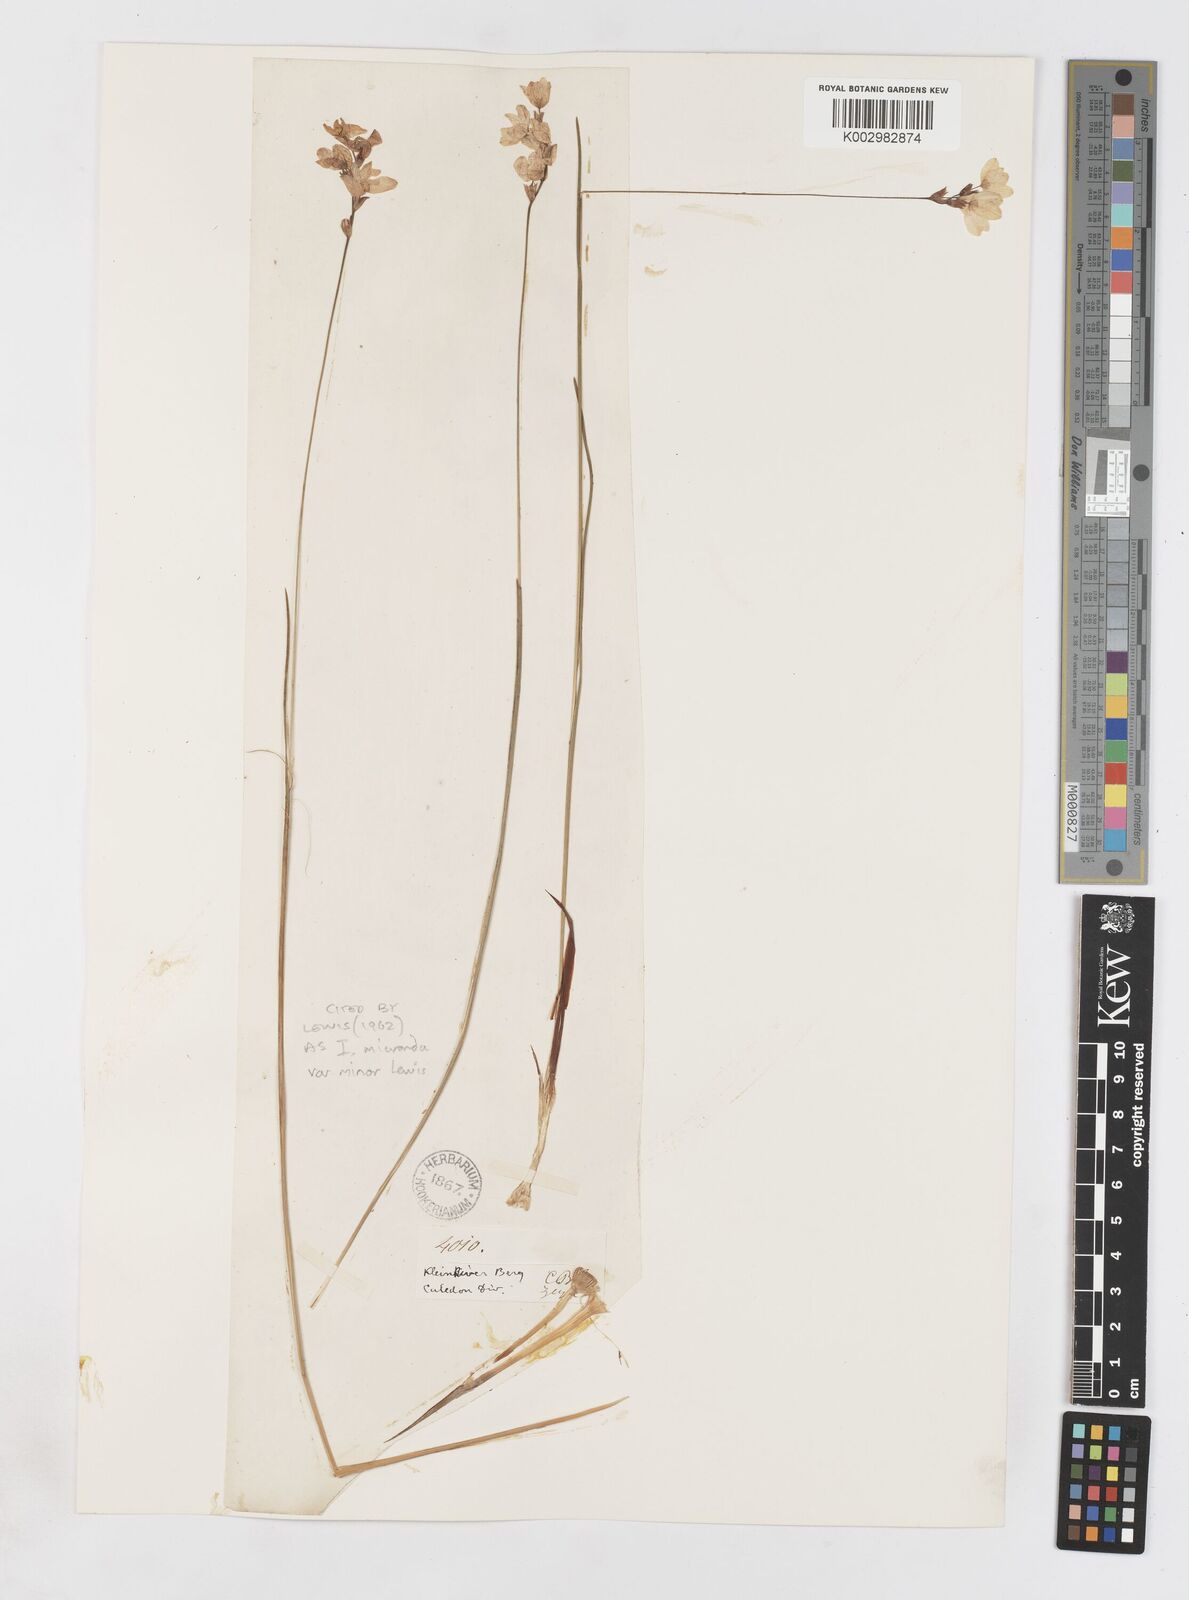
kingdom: Plantae
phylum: Tracheophyta
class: Liliopsida
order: Asparagales
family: Iridaceae
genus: Ixia
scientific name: Ixia minor
